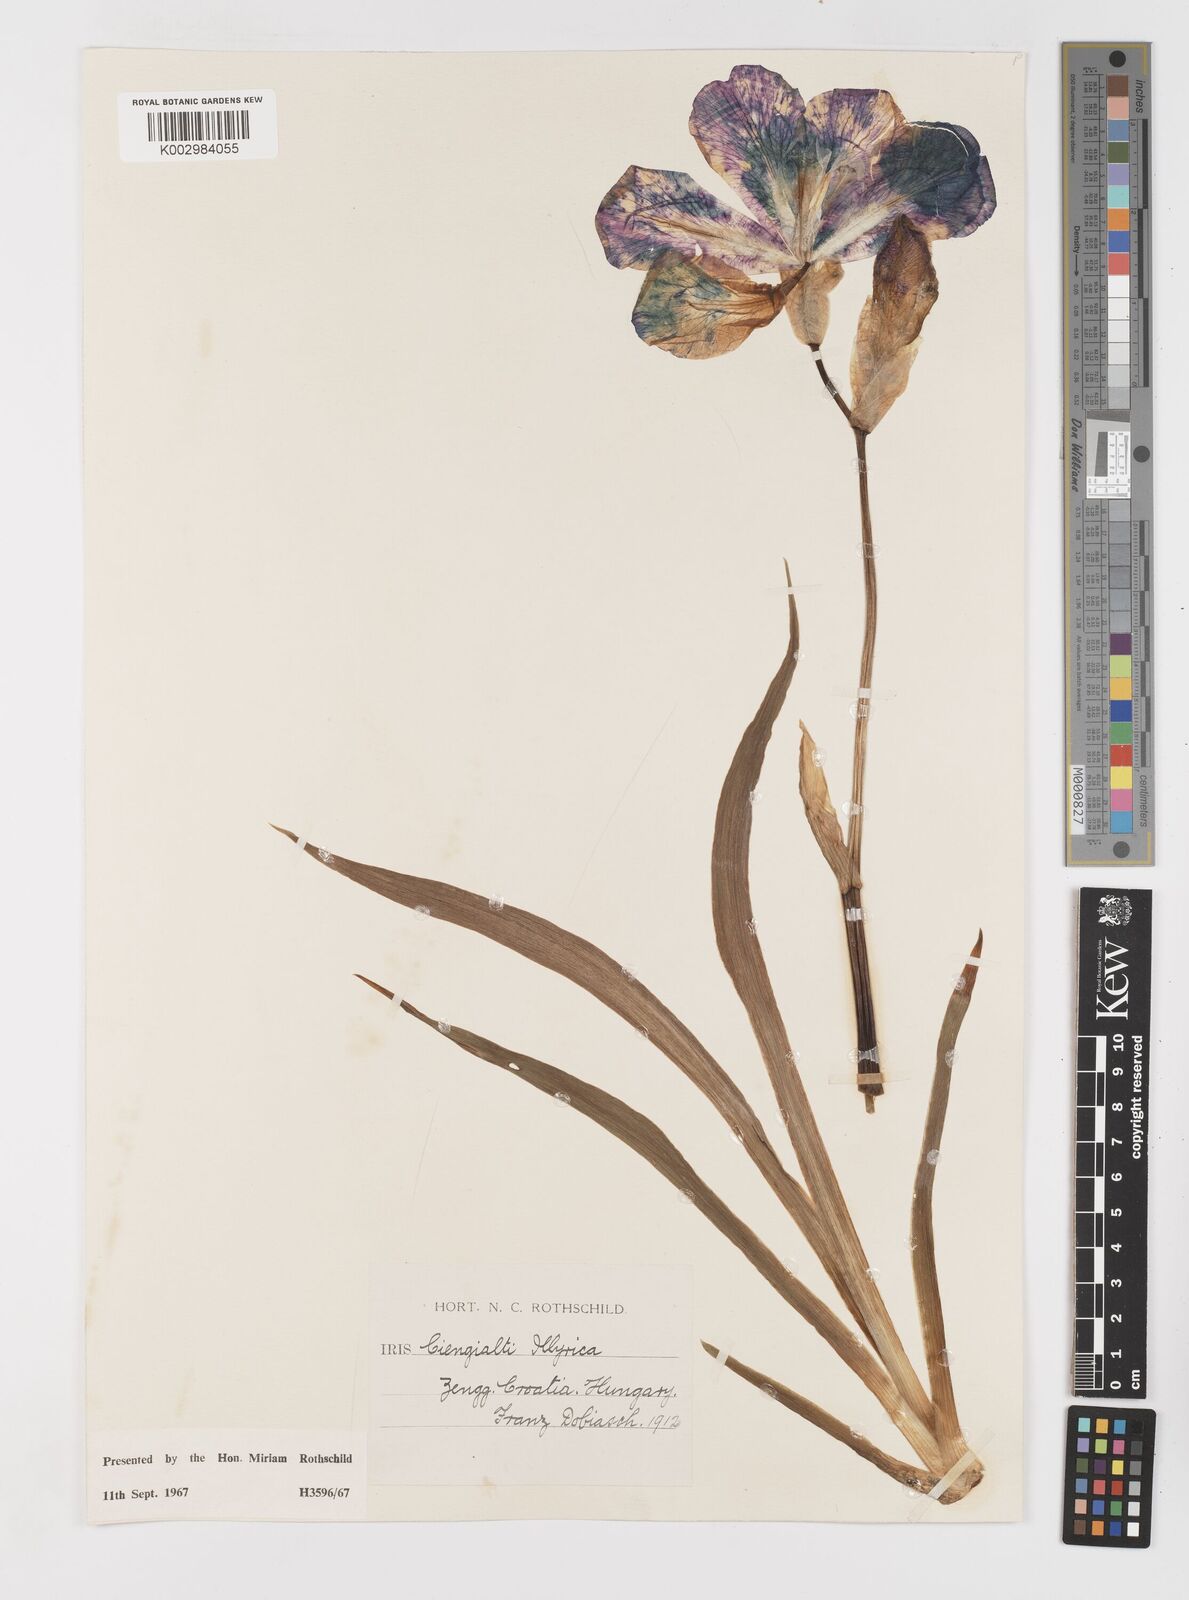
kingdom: Plantae
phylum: Tracheophyta
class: Liliopsida
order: Asparagales
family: Iridaceae
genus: Iris
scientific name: Iris pallida
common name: Sweet iris
